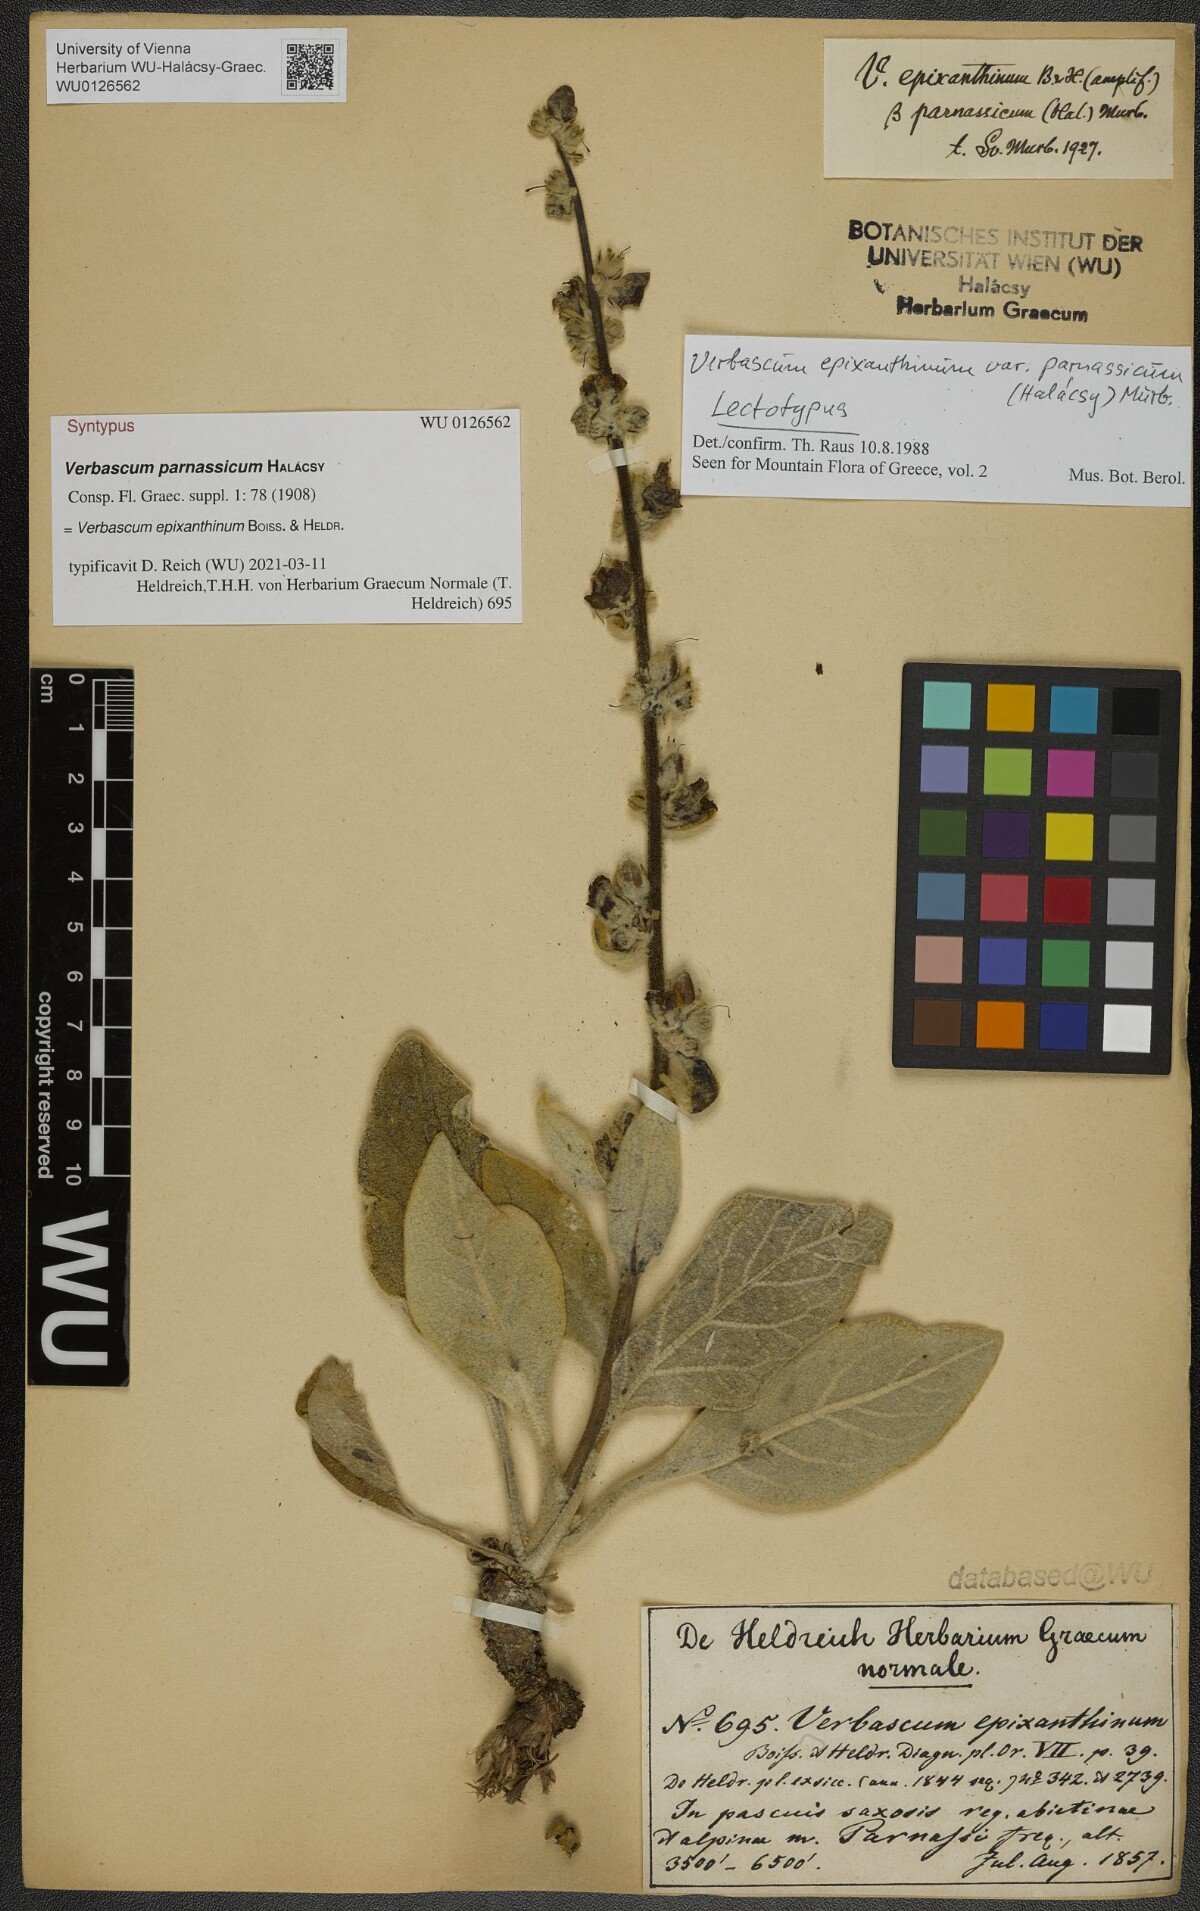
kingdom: Plantae
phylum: Tracheophyta
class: Magnoliopsida
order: Lamiales
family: Scrophulariaceae
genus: Verbascum
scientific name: Verbascum epixanthinum
